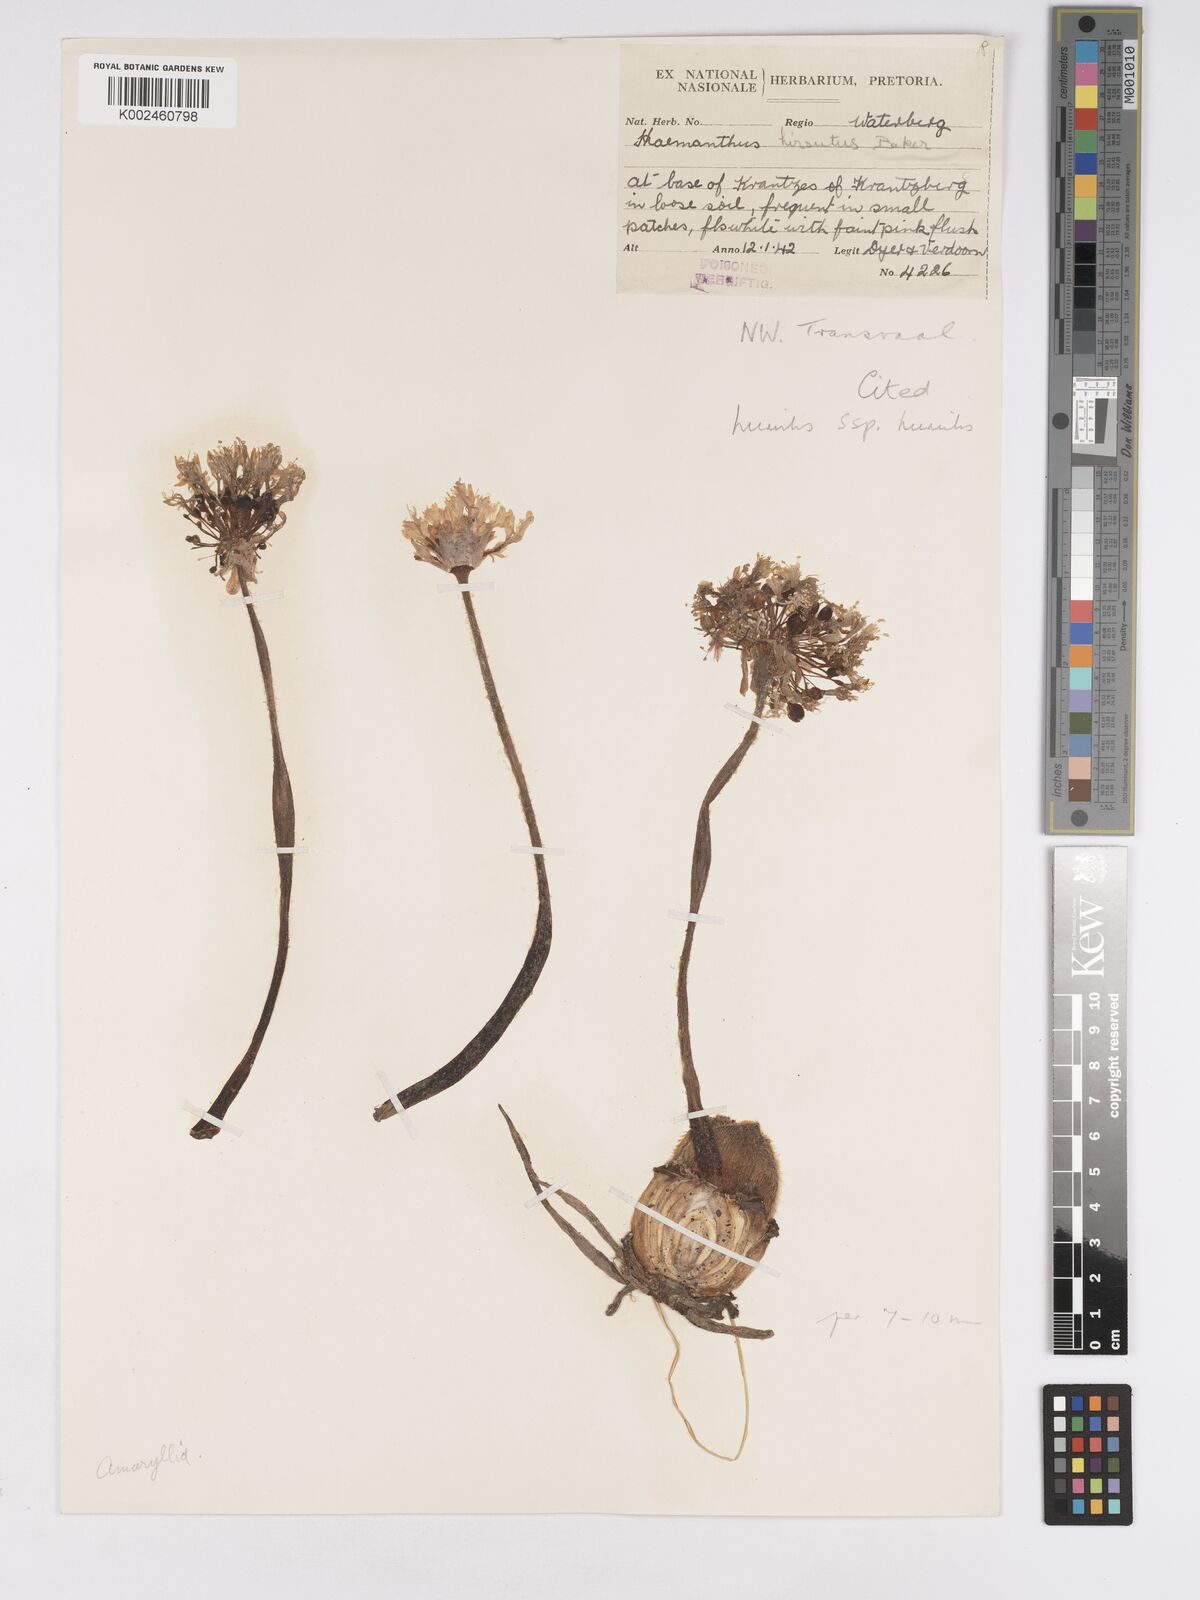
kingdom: Plantae
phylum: Tracheophyta
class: Liliopsida
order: Asparagales
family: Amaryllidaceae
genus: Haemanthus
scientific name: Haemanthus humilis
